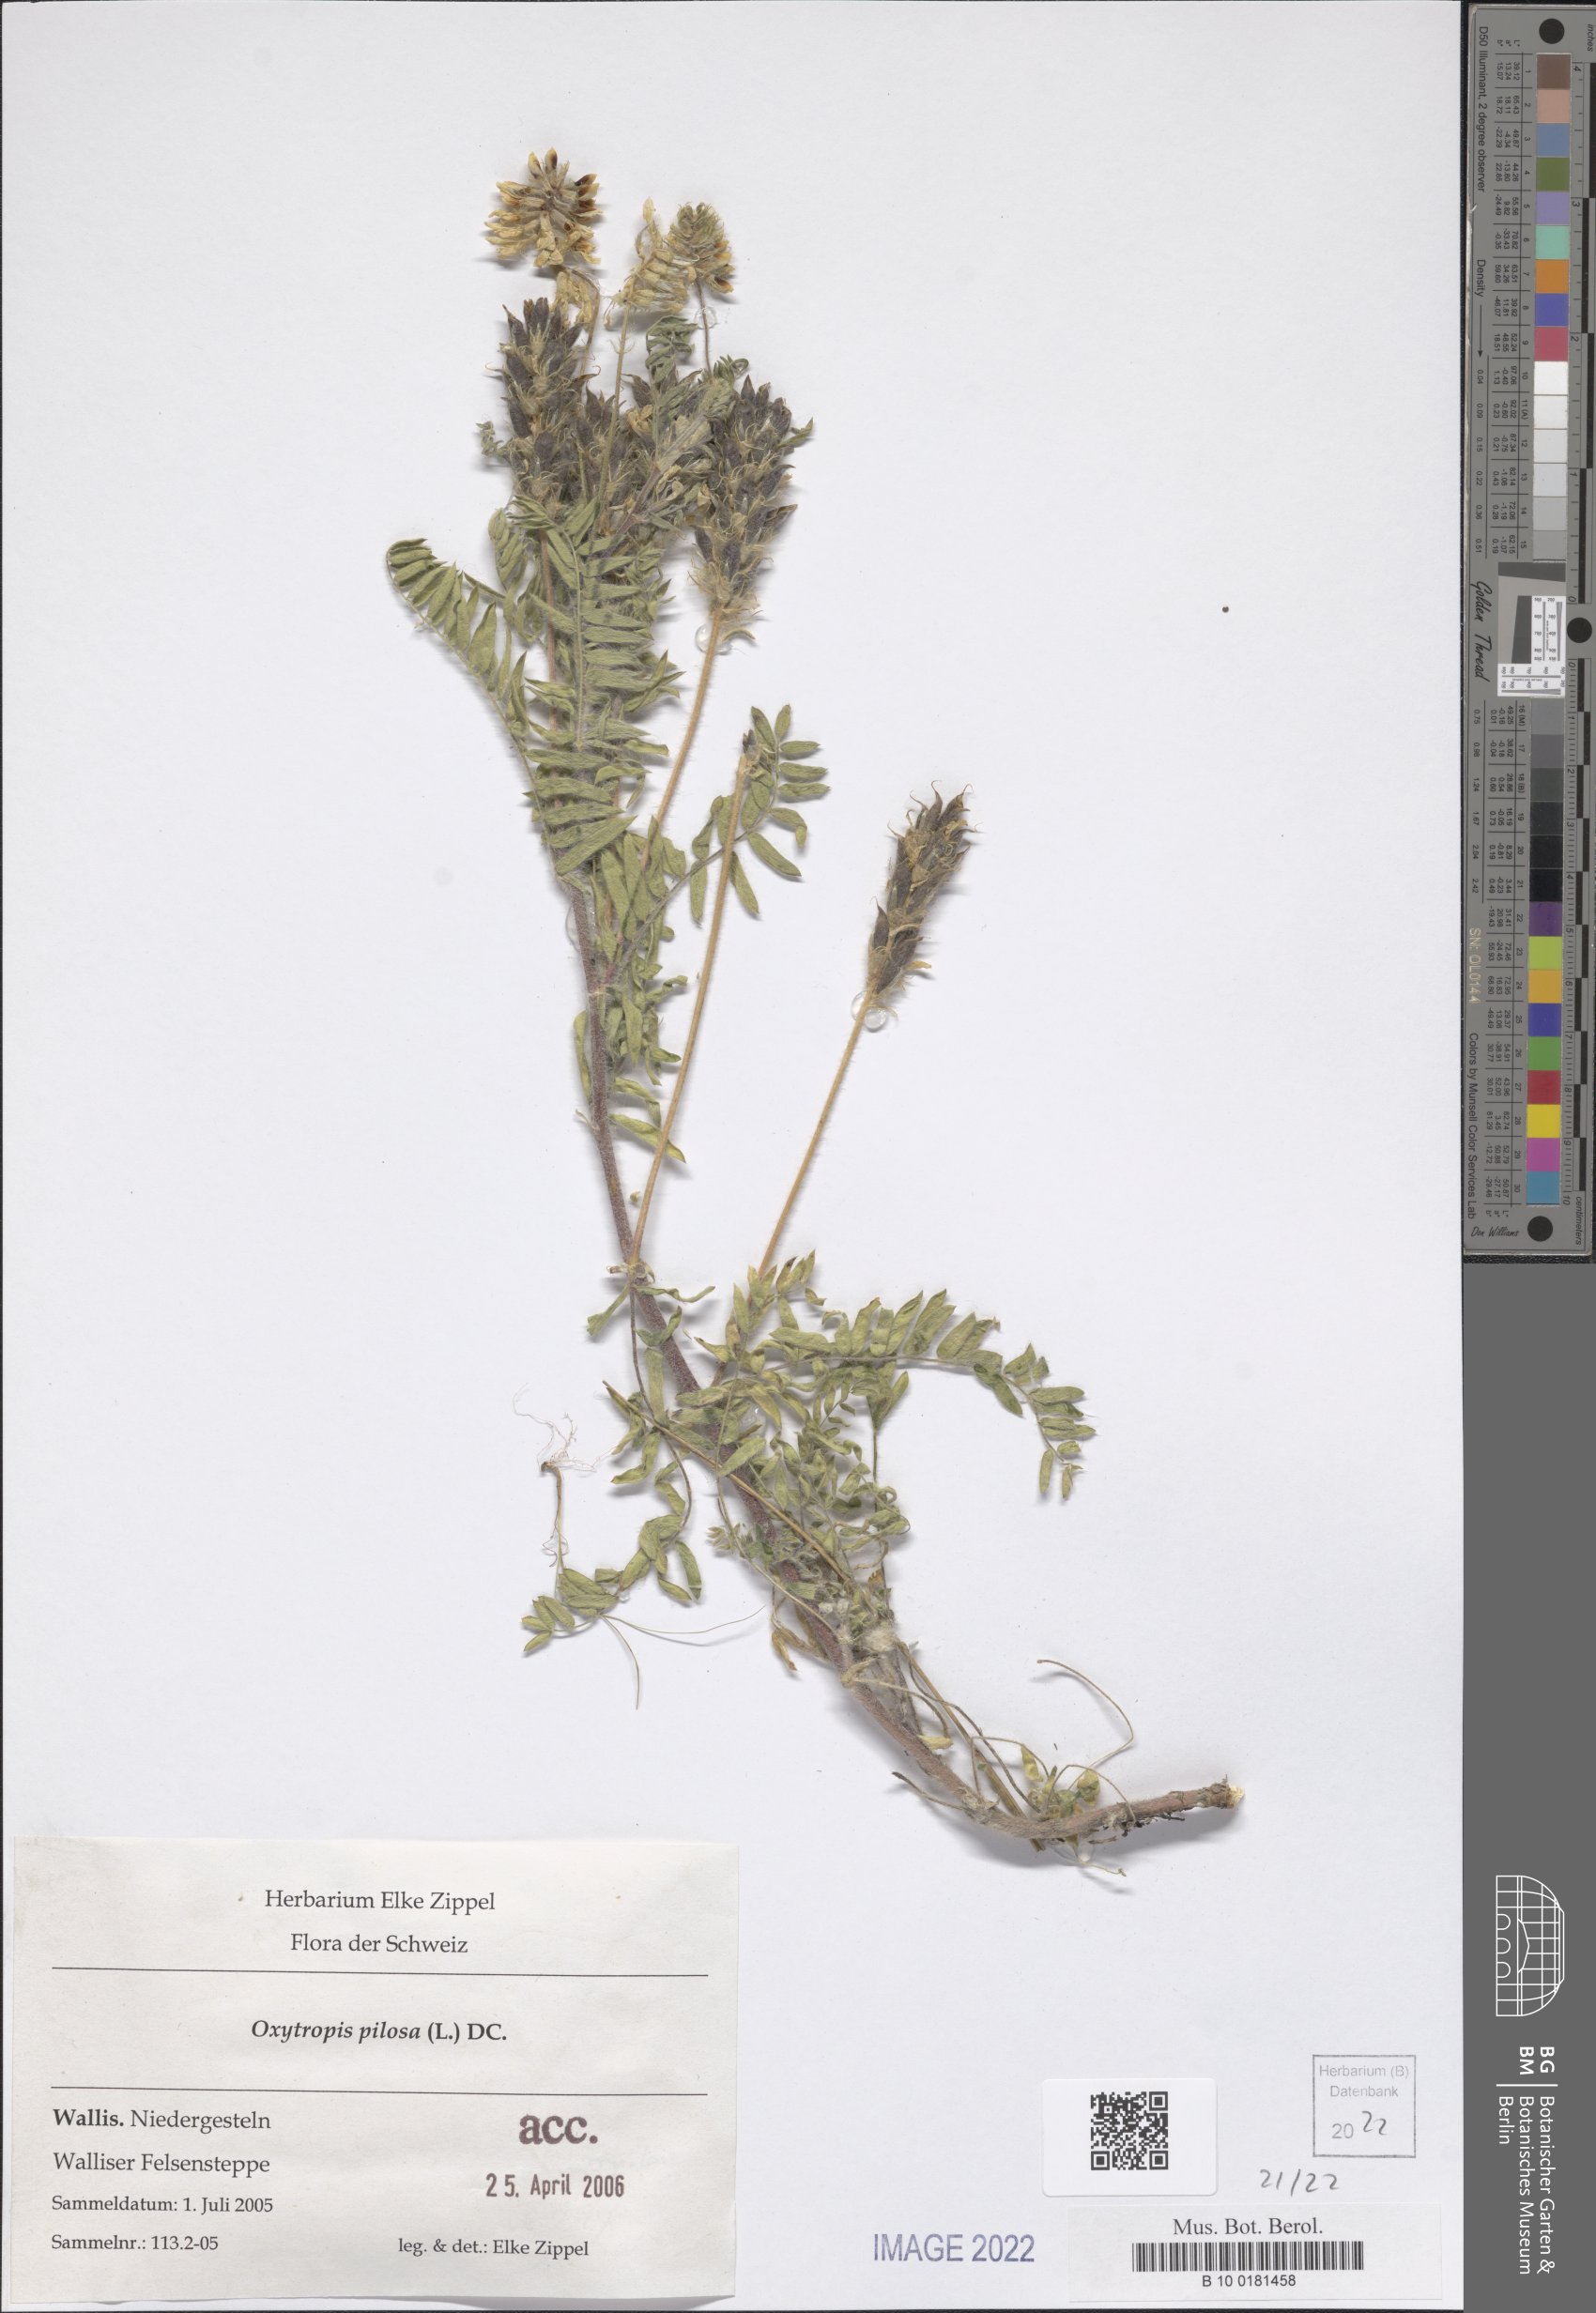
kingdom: Plantae
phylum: Tracheophyta
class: Magnoliopsida
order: Fabales
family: Fabaceae
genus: Oxytropis
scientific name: Oxytropis pilosa
